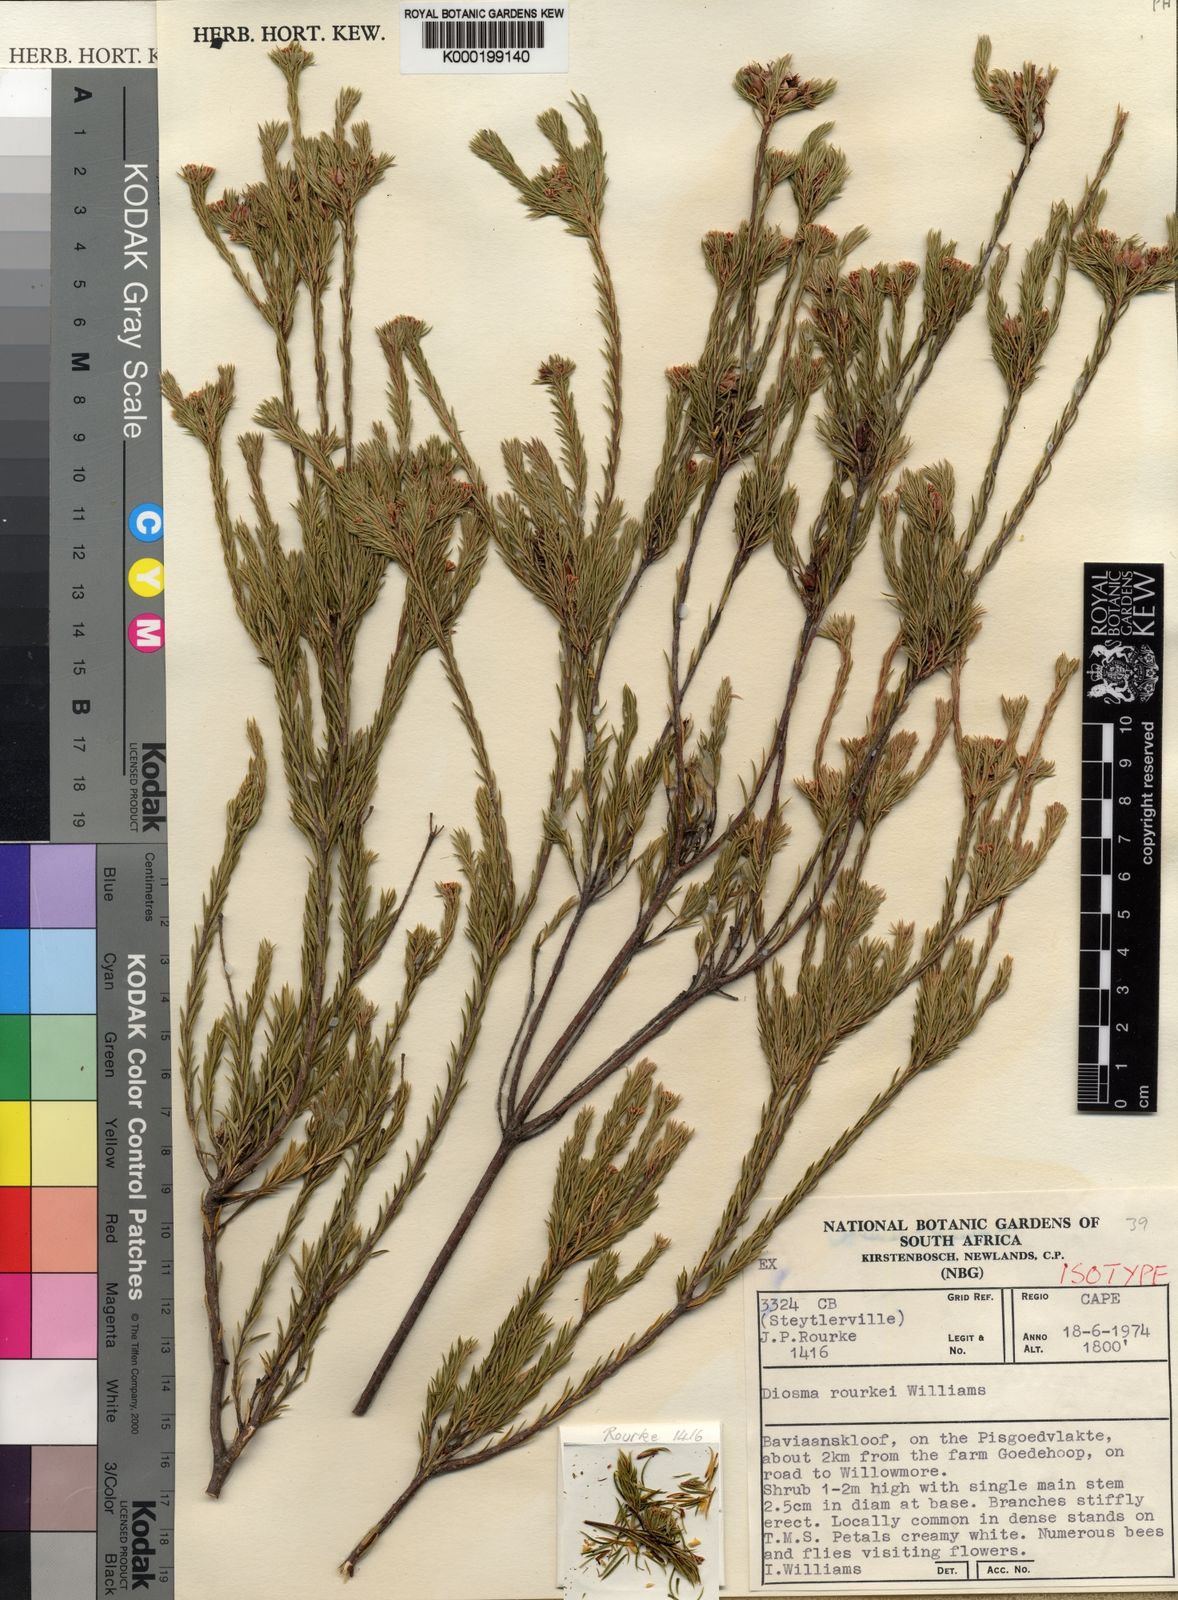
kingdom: Plantae
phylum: Tracheophyta
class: Magnoliopsida
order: Sapindales
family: Rutaceae
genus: Diosma
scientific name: Diosma rourkei
